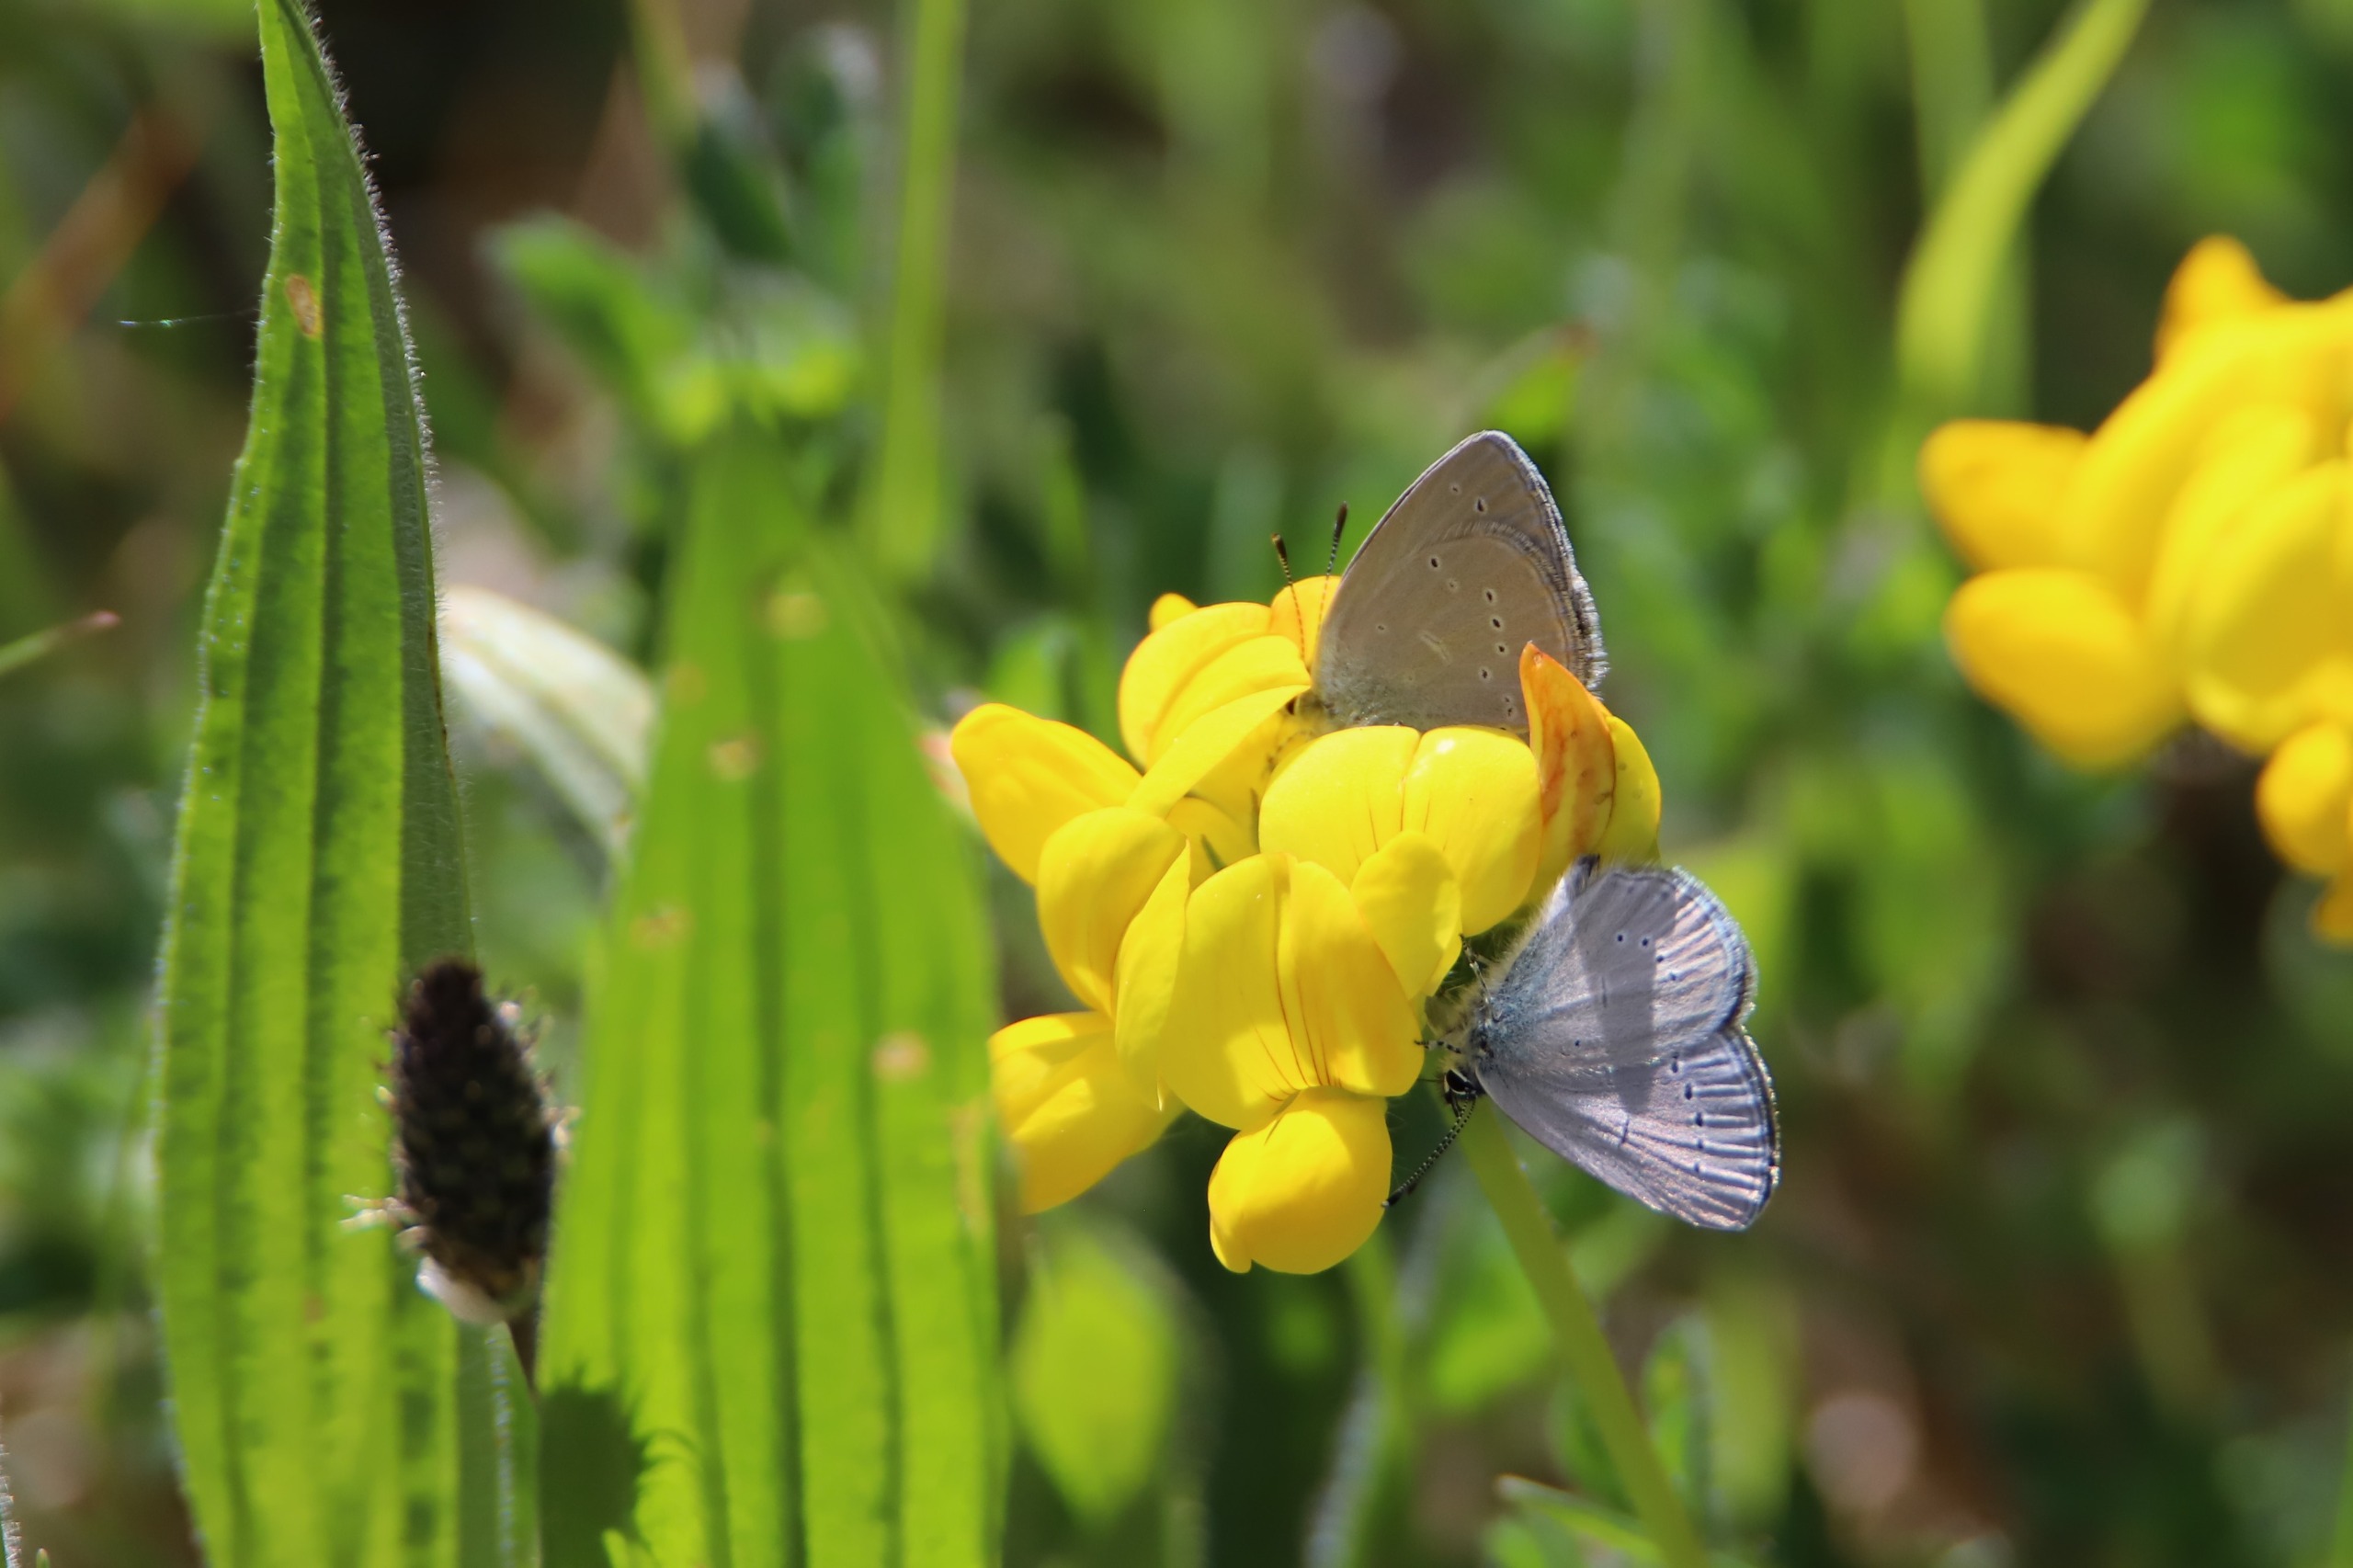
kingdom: Animalia
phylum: Arthropoda
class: Insecta
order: Lepidoptera
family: Lycaenidae
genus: Cupido
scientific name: Cupido minimus
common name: Dværgblåfugl
